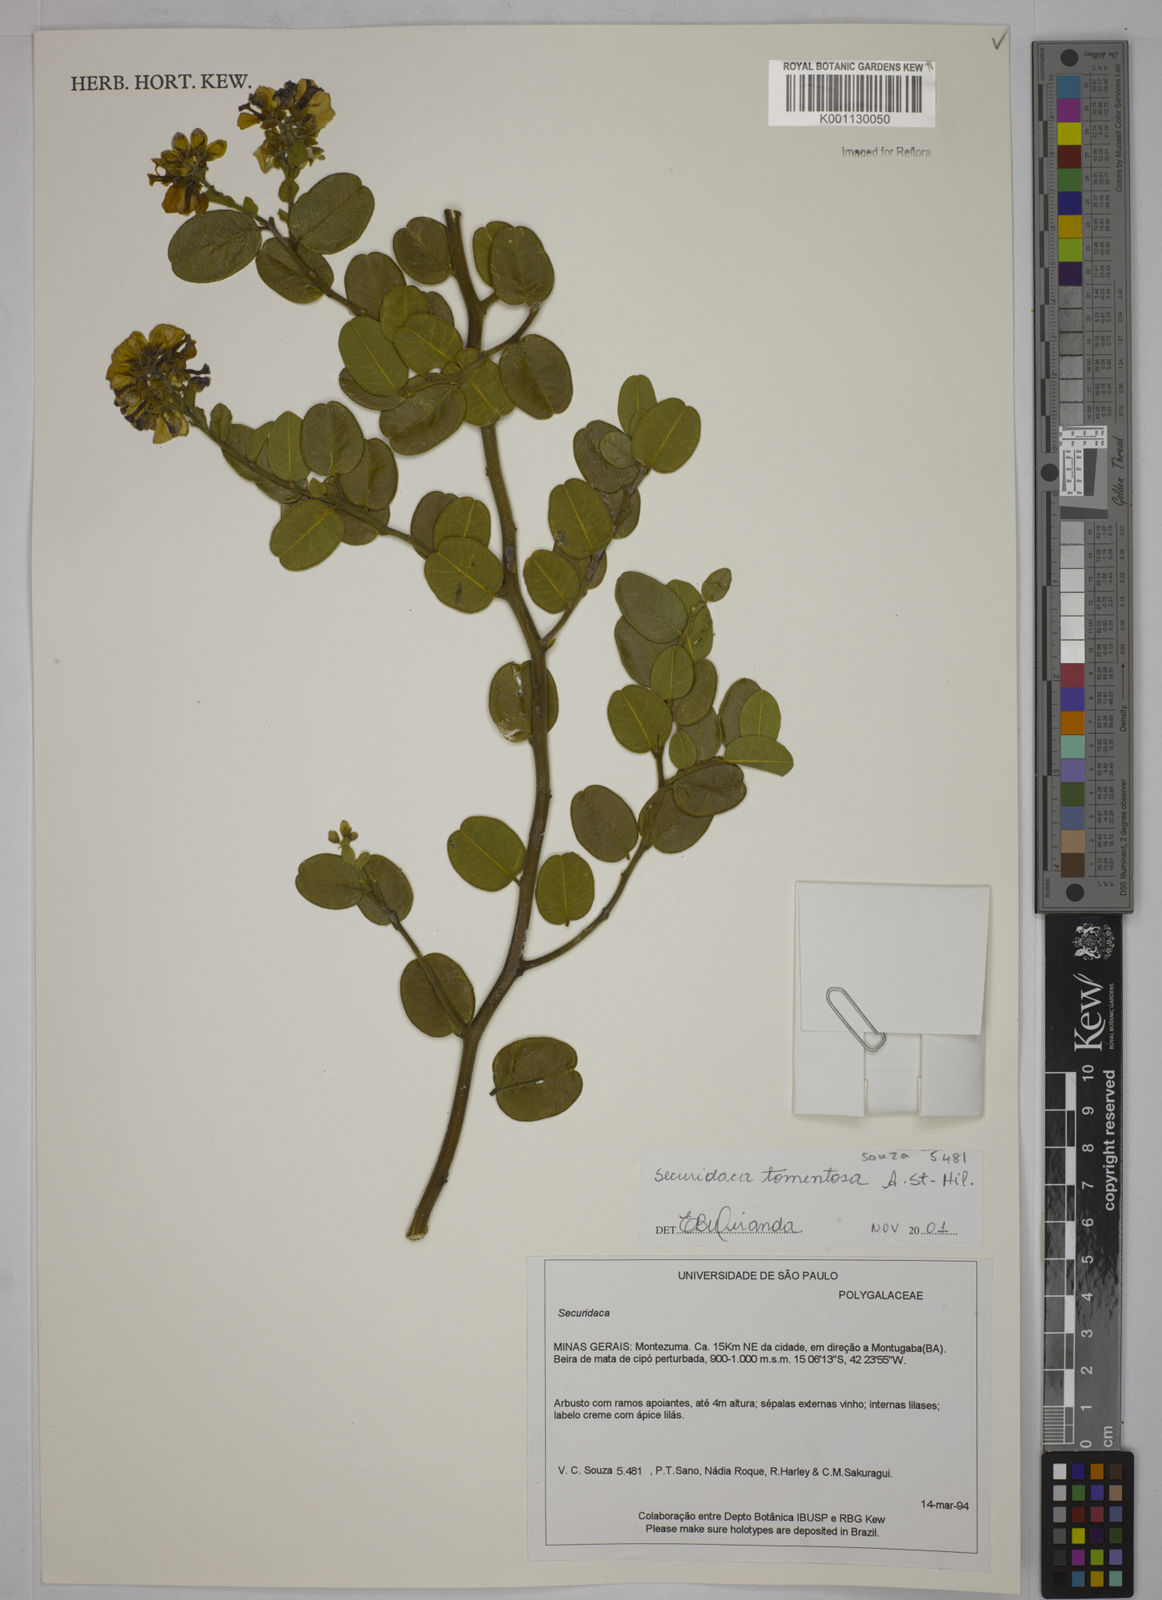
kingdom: Plantae
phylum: Tracheophyta
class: Magnoliopsida
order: Fabales
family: Polygalaceae
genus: Securidaca
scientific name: Securidaca tomentosa
